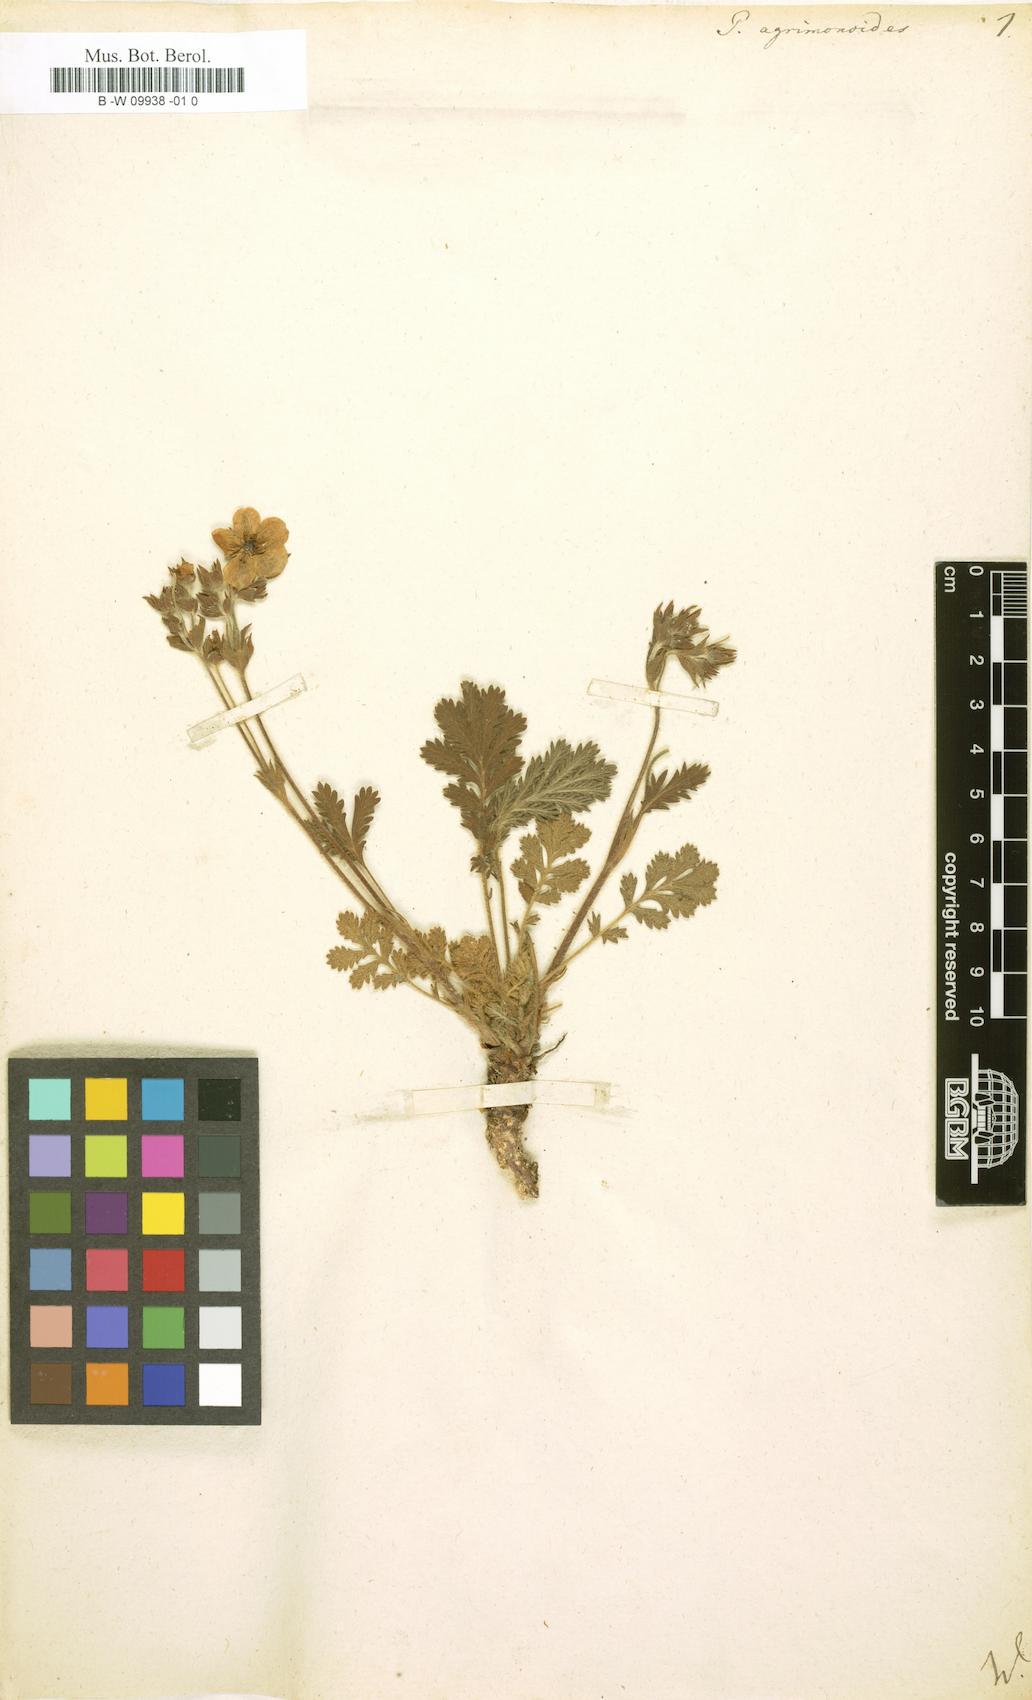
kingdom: Plantae
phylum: Tracheophyta
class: Magnoliopsida
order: Rosales
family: Rosaceae
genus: Potentilla
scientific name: Potentilla agrimonoides
